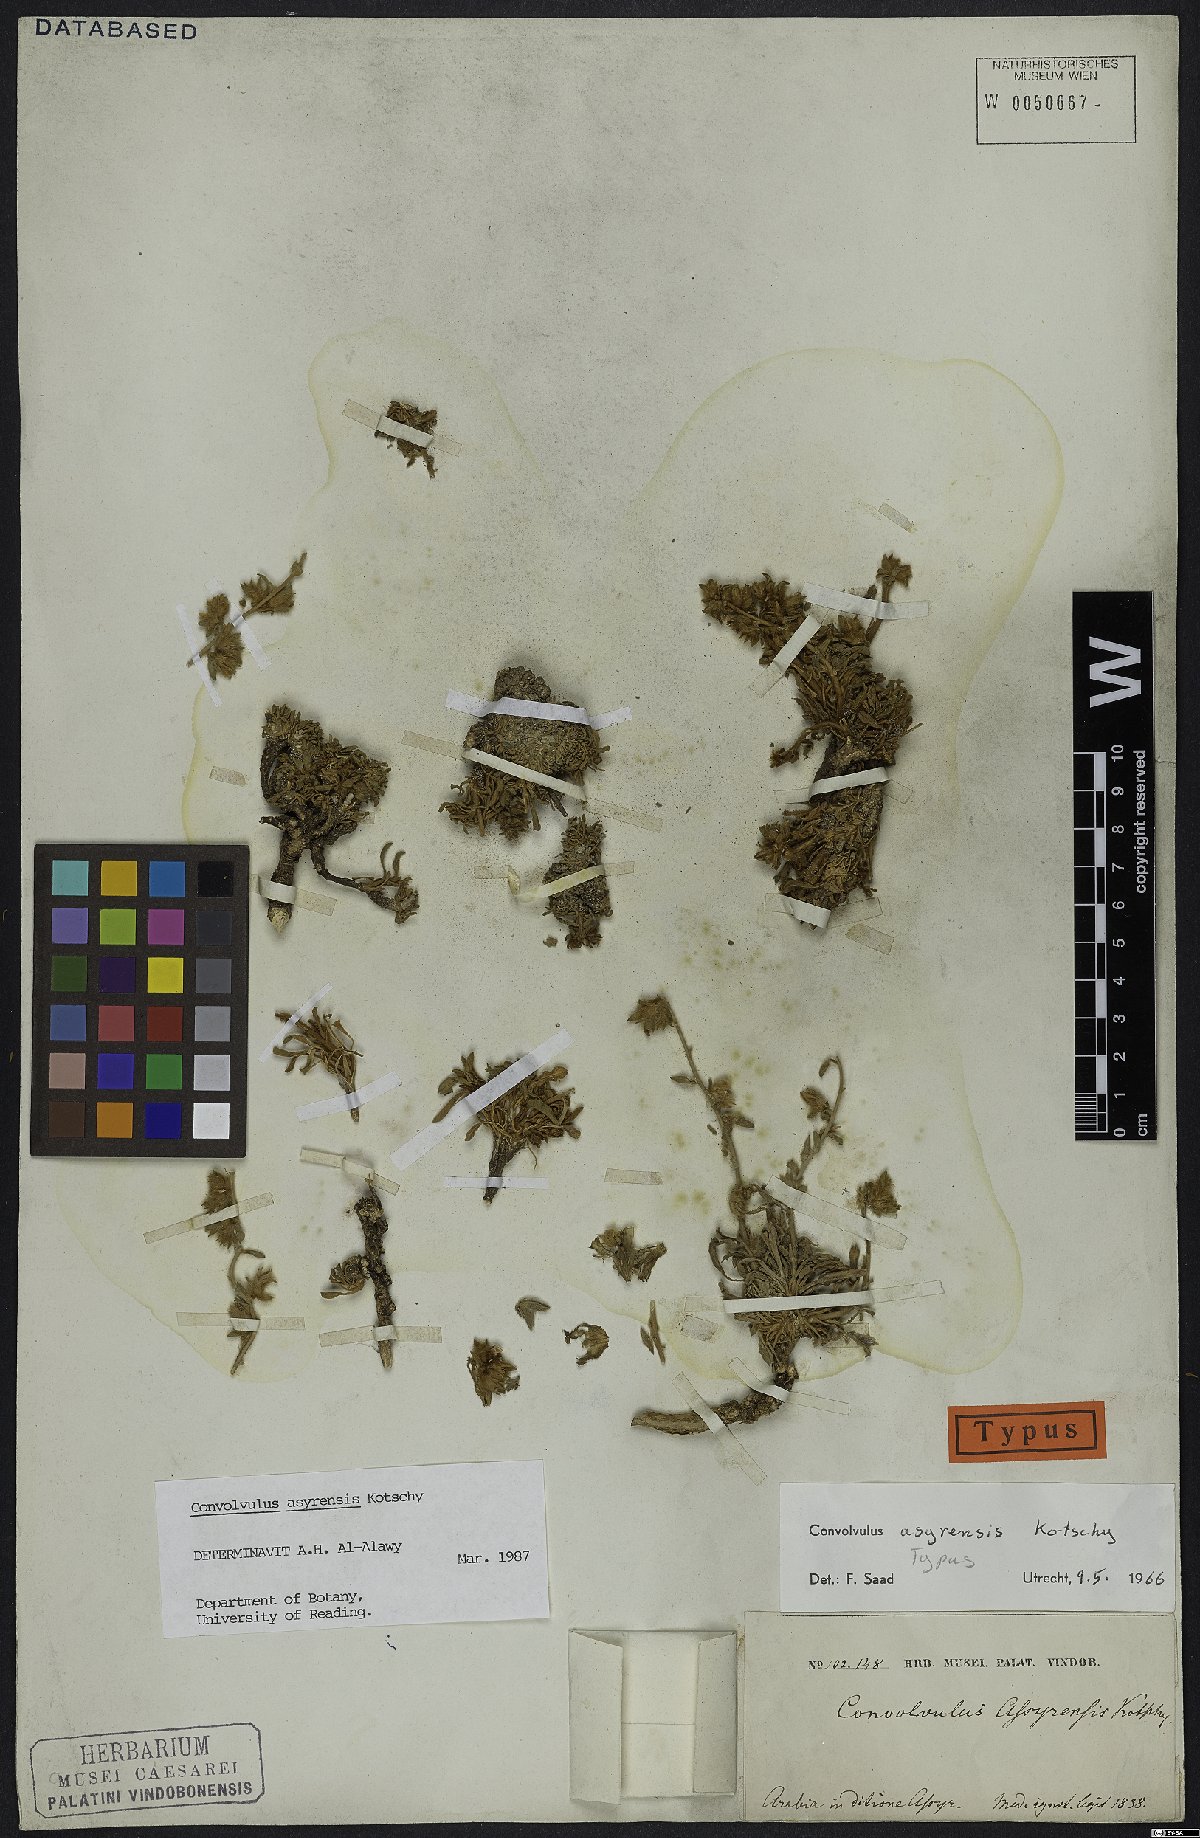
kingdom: Plantae
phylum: Tracheophyta
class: Magnoliopsida
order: Solanales
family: Convolvulaceae
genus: Convolvulus
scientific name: Convolvulus asyrensis
